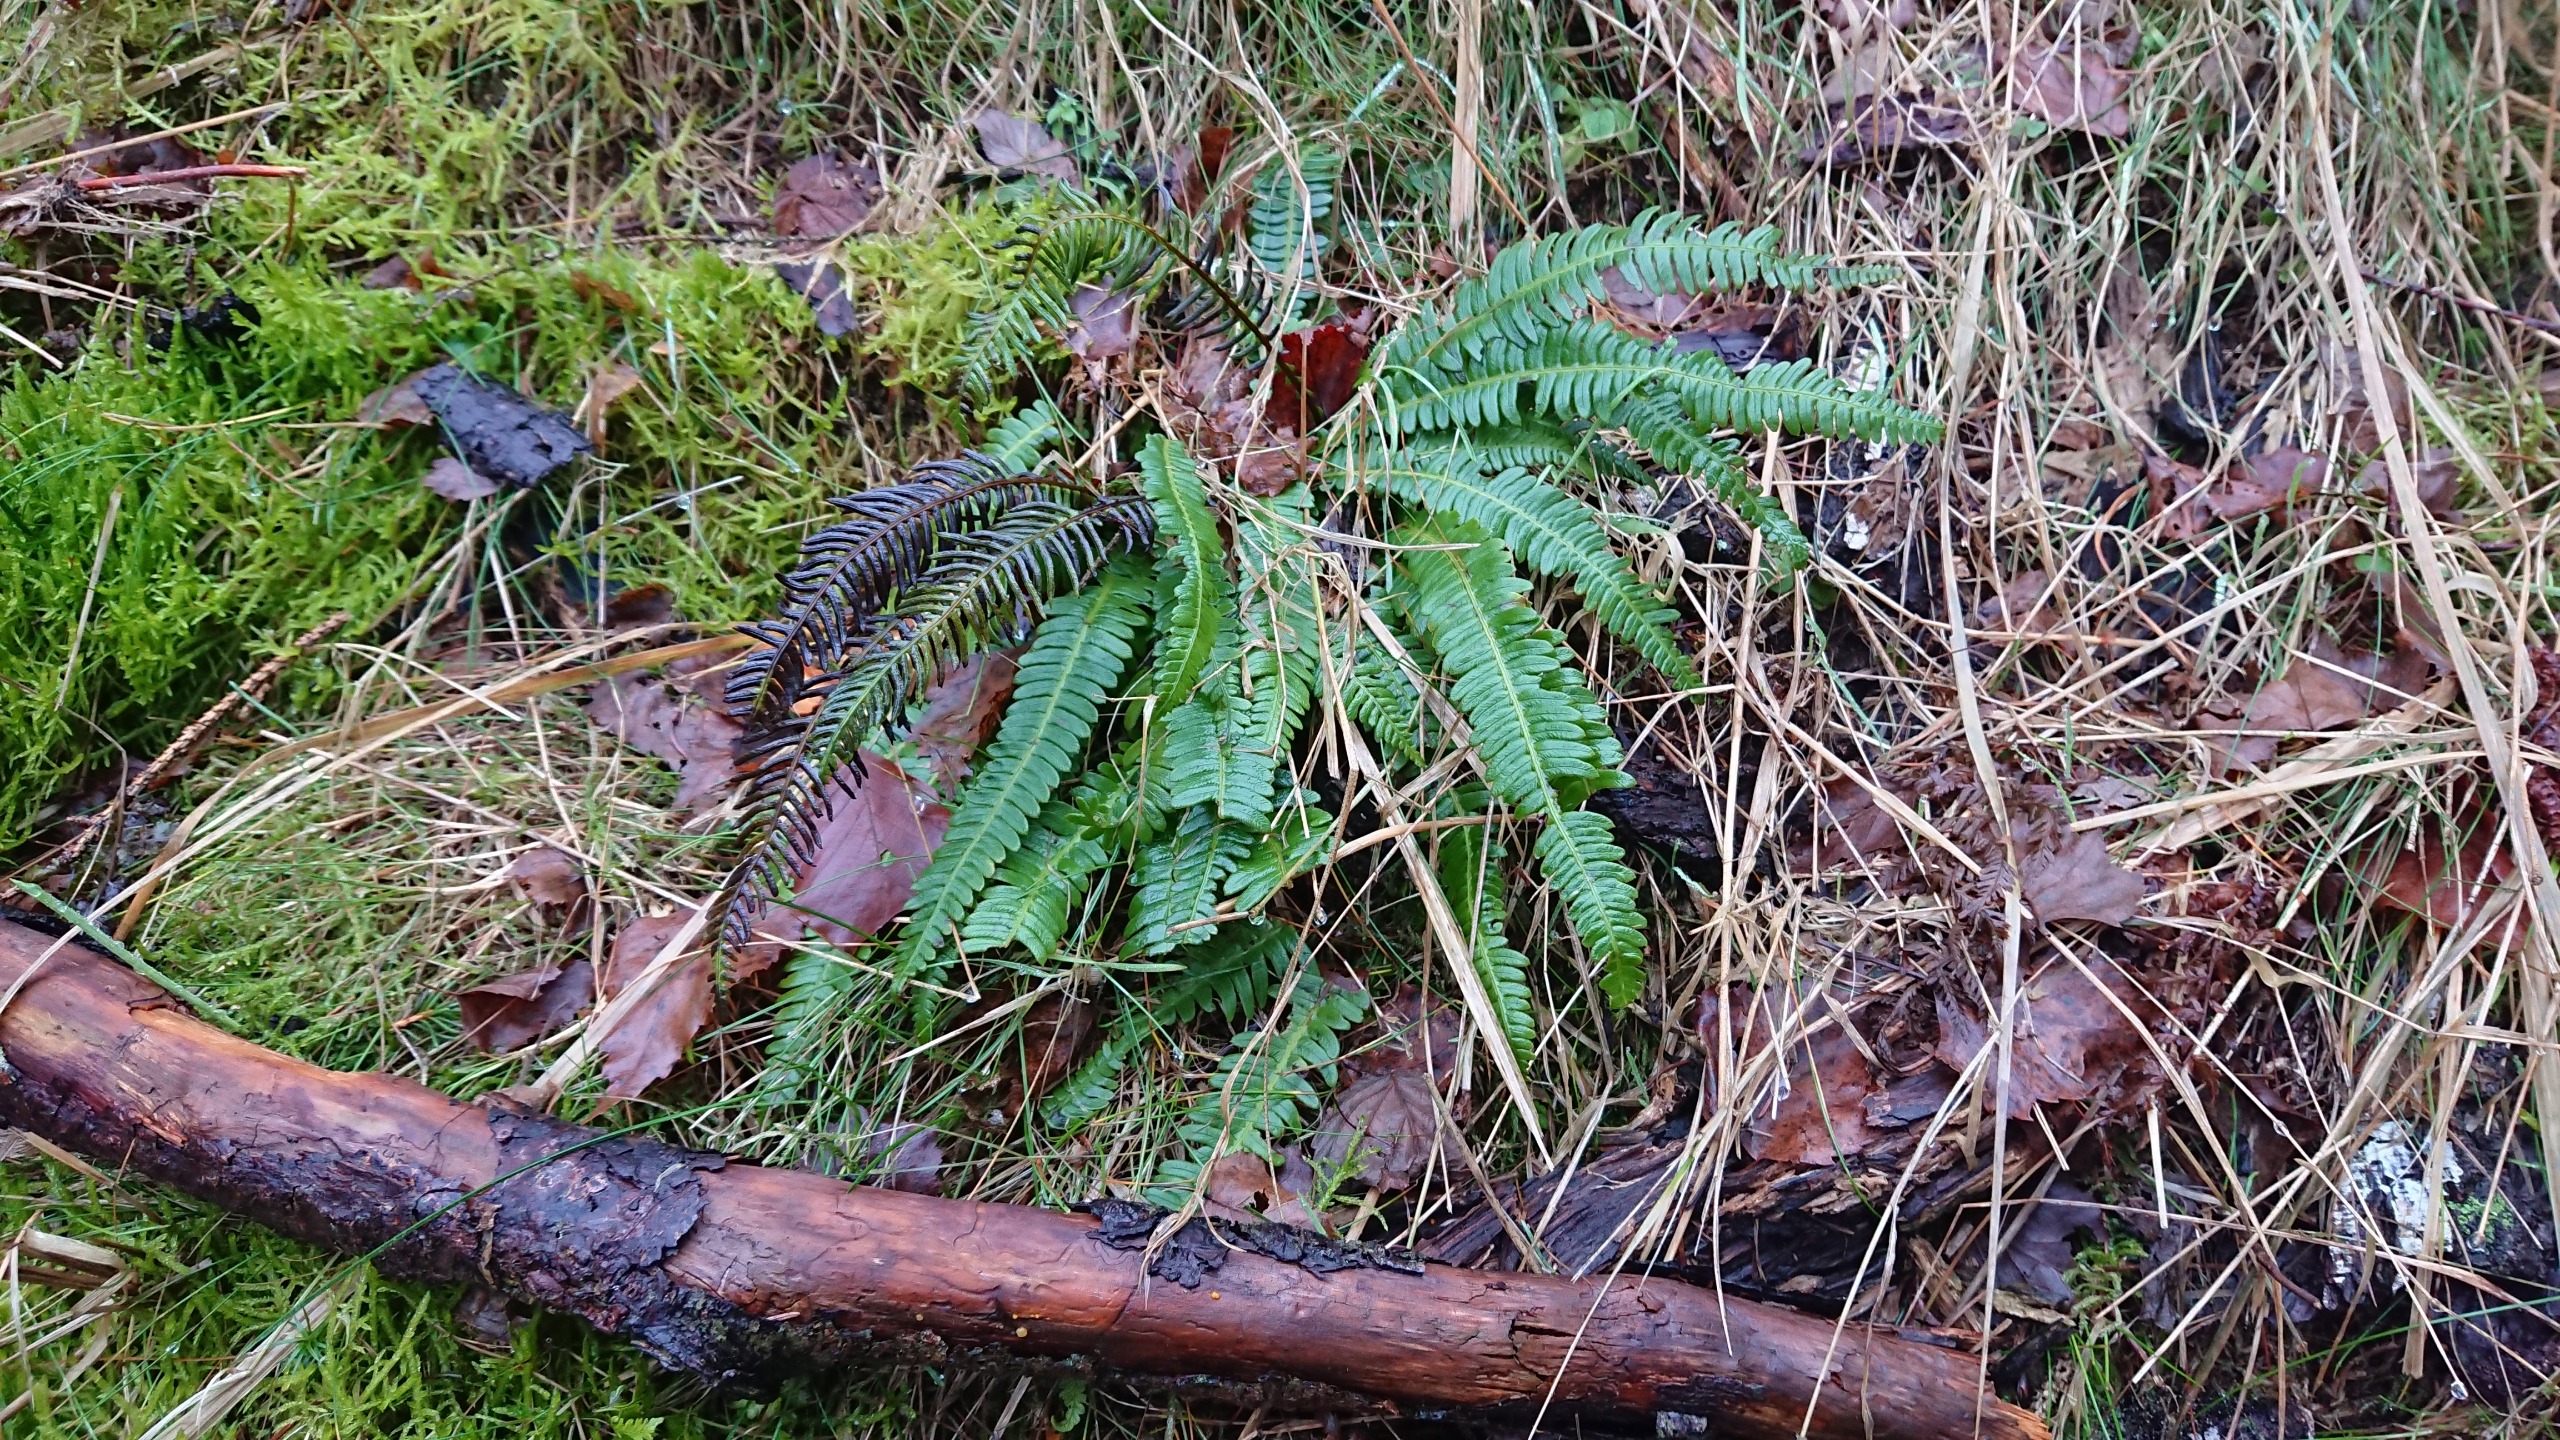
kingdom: Plantae
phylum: Tracheophyta
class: Polypodiopsida
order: Polypodiales
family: Blechnaceae
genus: Struthiopteris
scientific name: Struthiopteris spicant
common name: Kambregne
